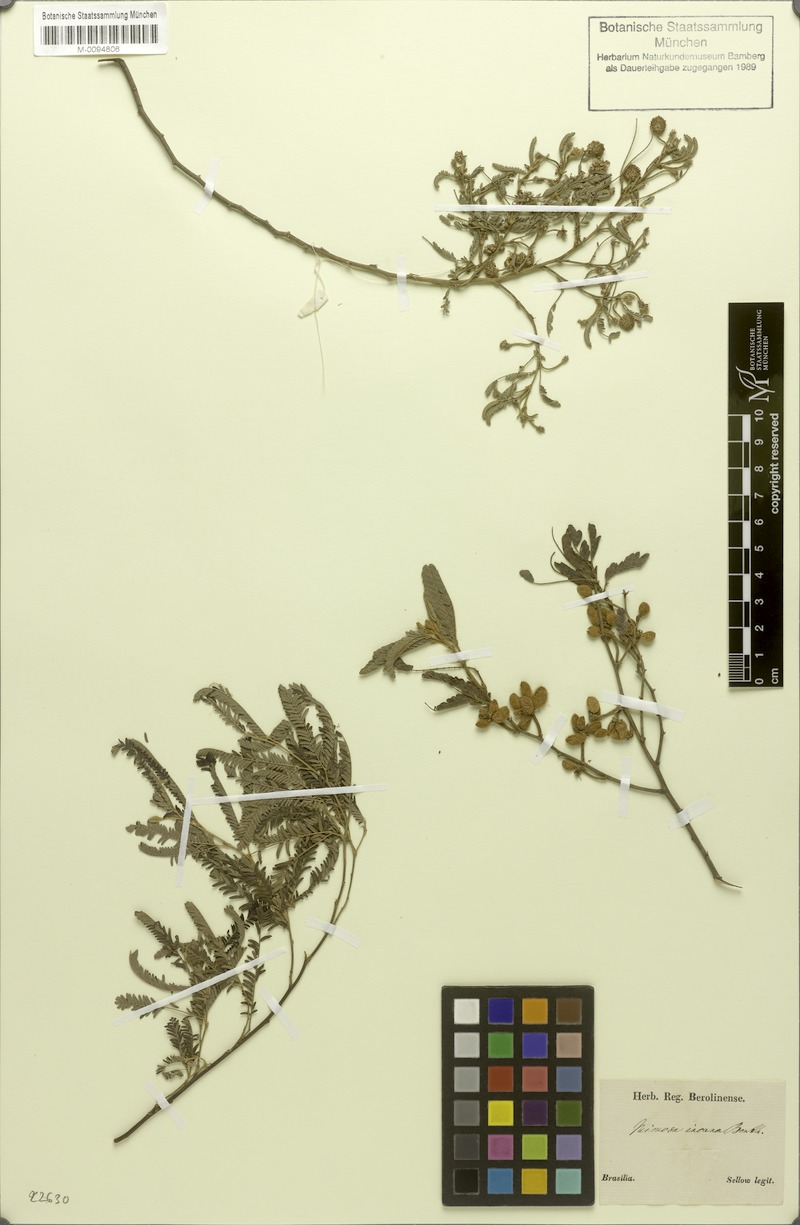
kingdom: Plantae
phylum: Tracheophyta
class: Magnoliopsida
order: Fabales
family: Fabaceae
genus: Mimosa
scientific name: Mimosa pilulifera
